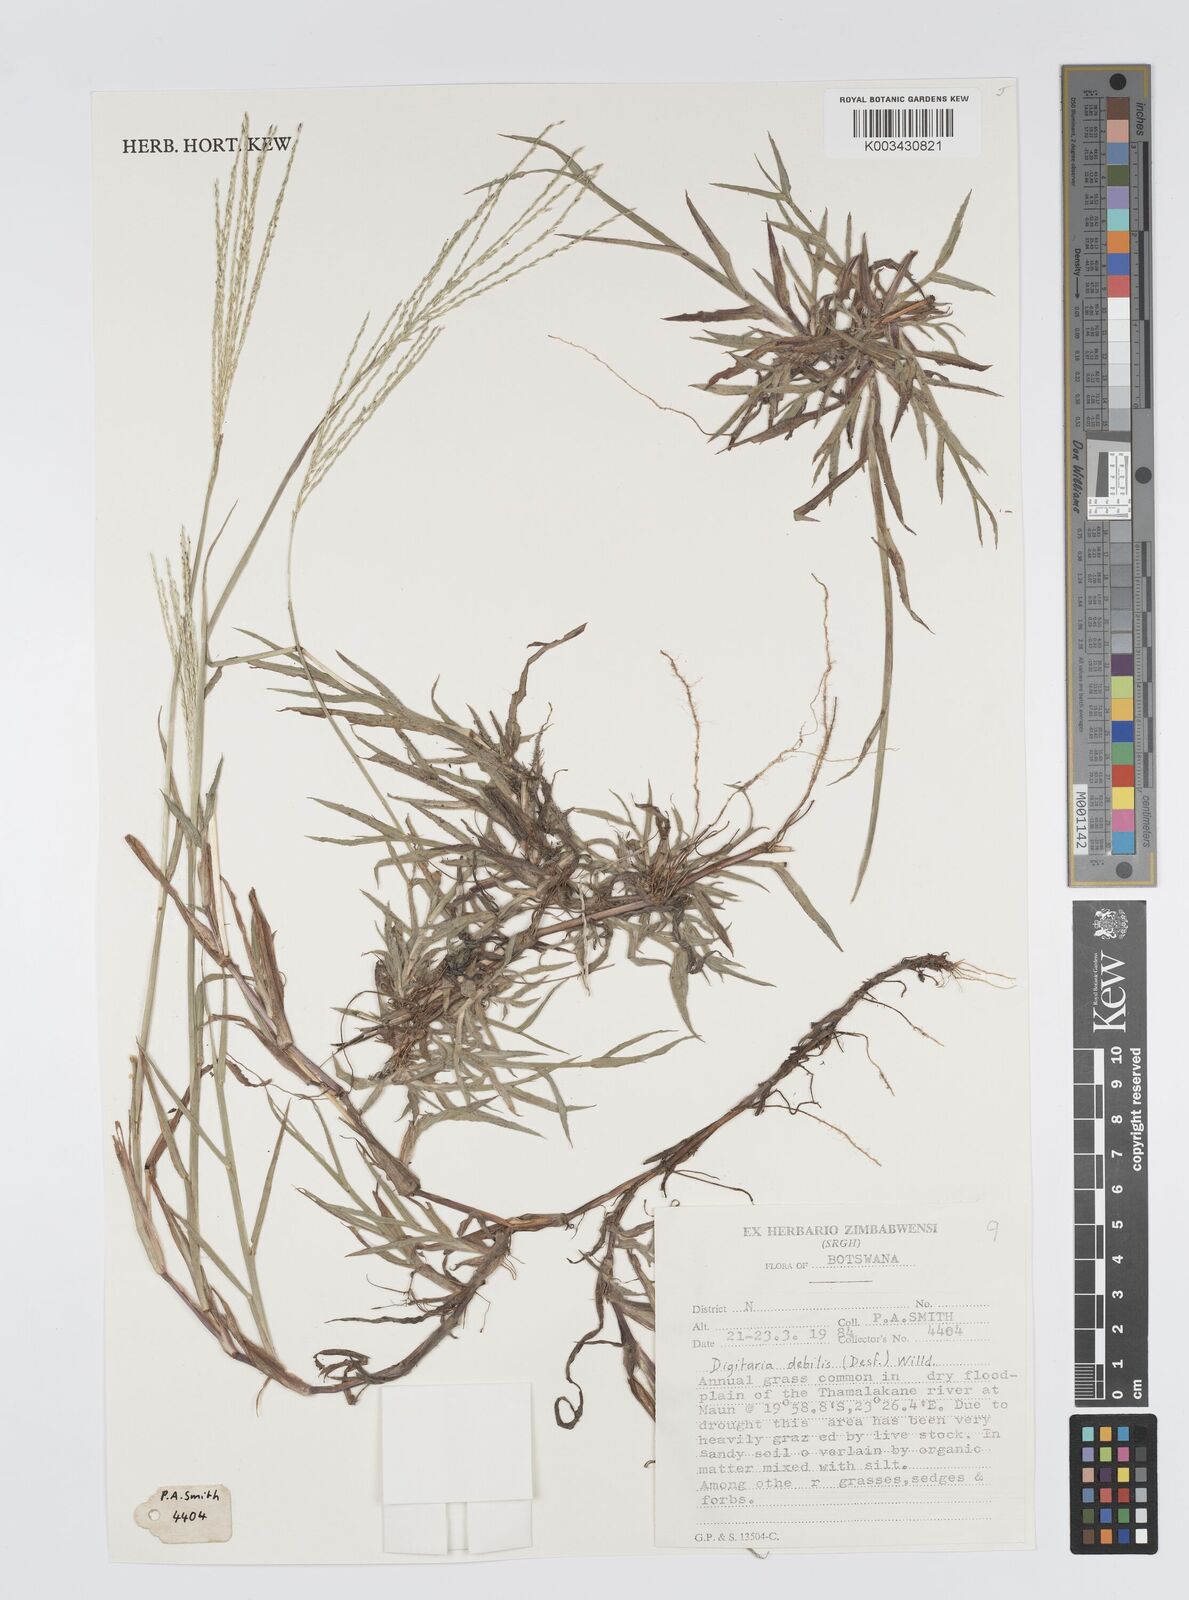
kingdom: Plantae
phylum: Tracheophyta
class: Liliopsida
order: Poales
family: Poaceae
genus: Digitaria
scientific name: Digitaria debilis
